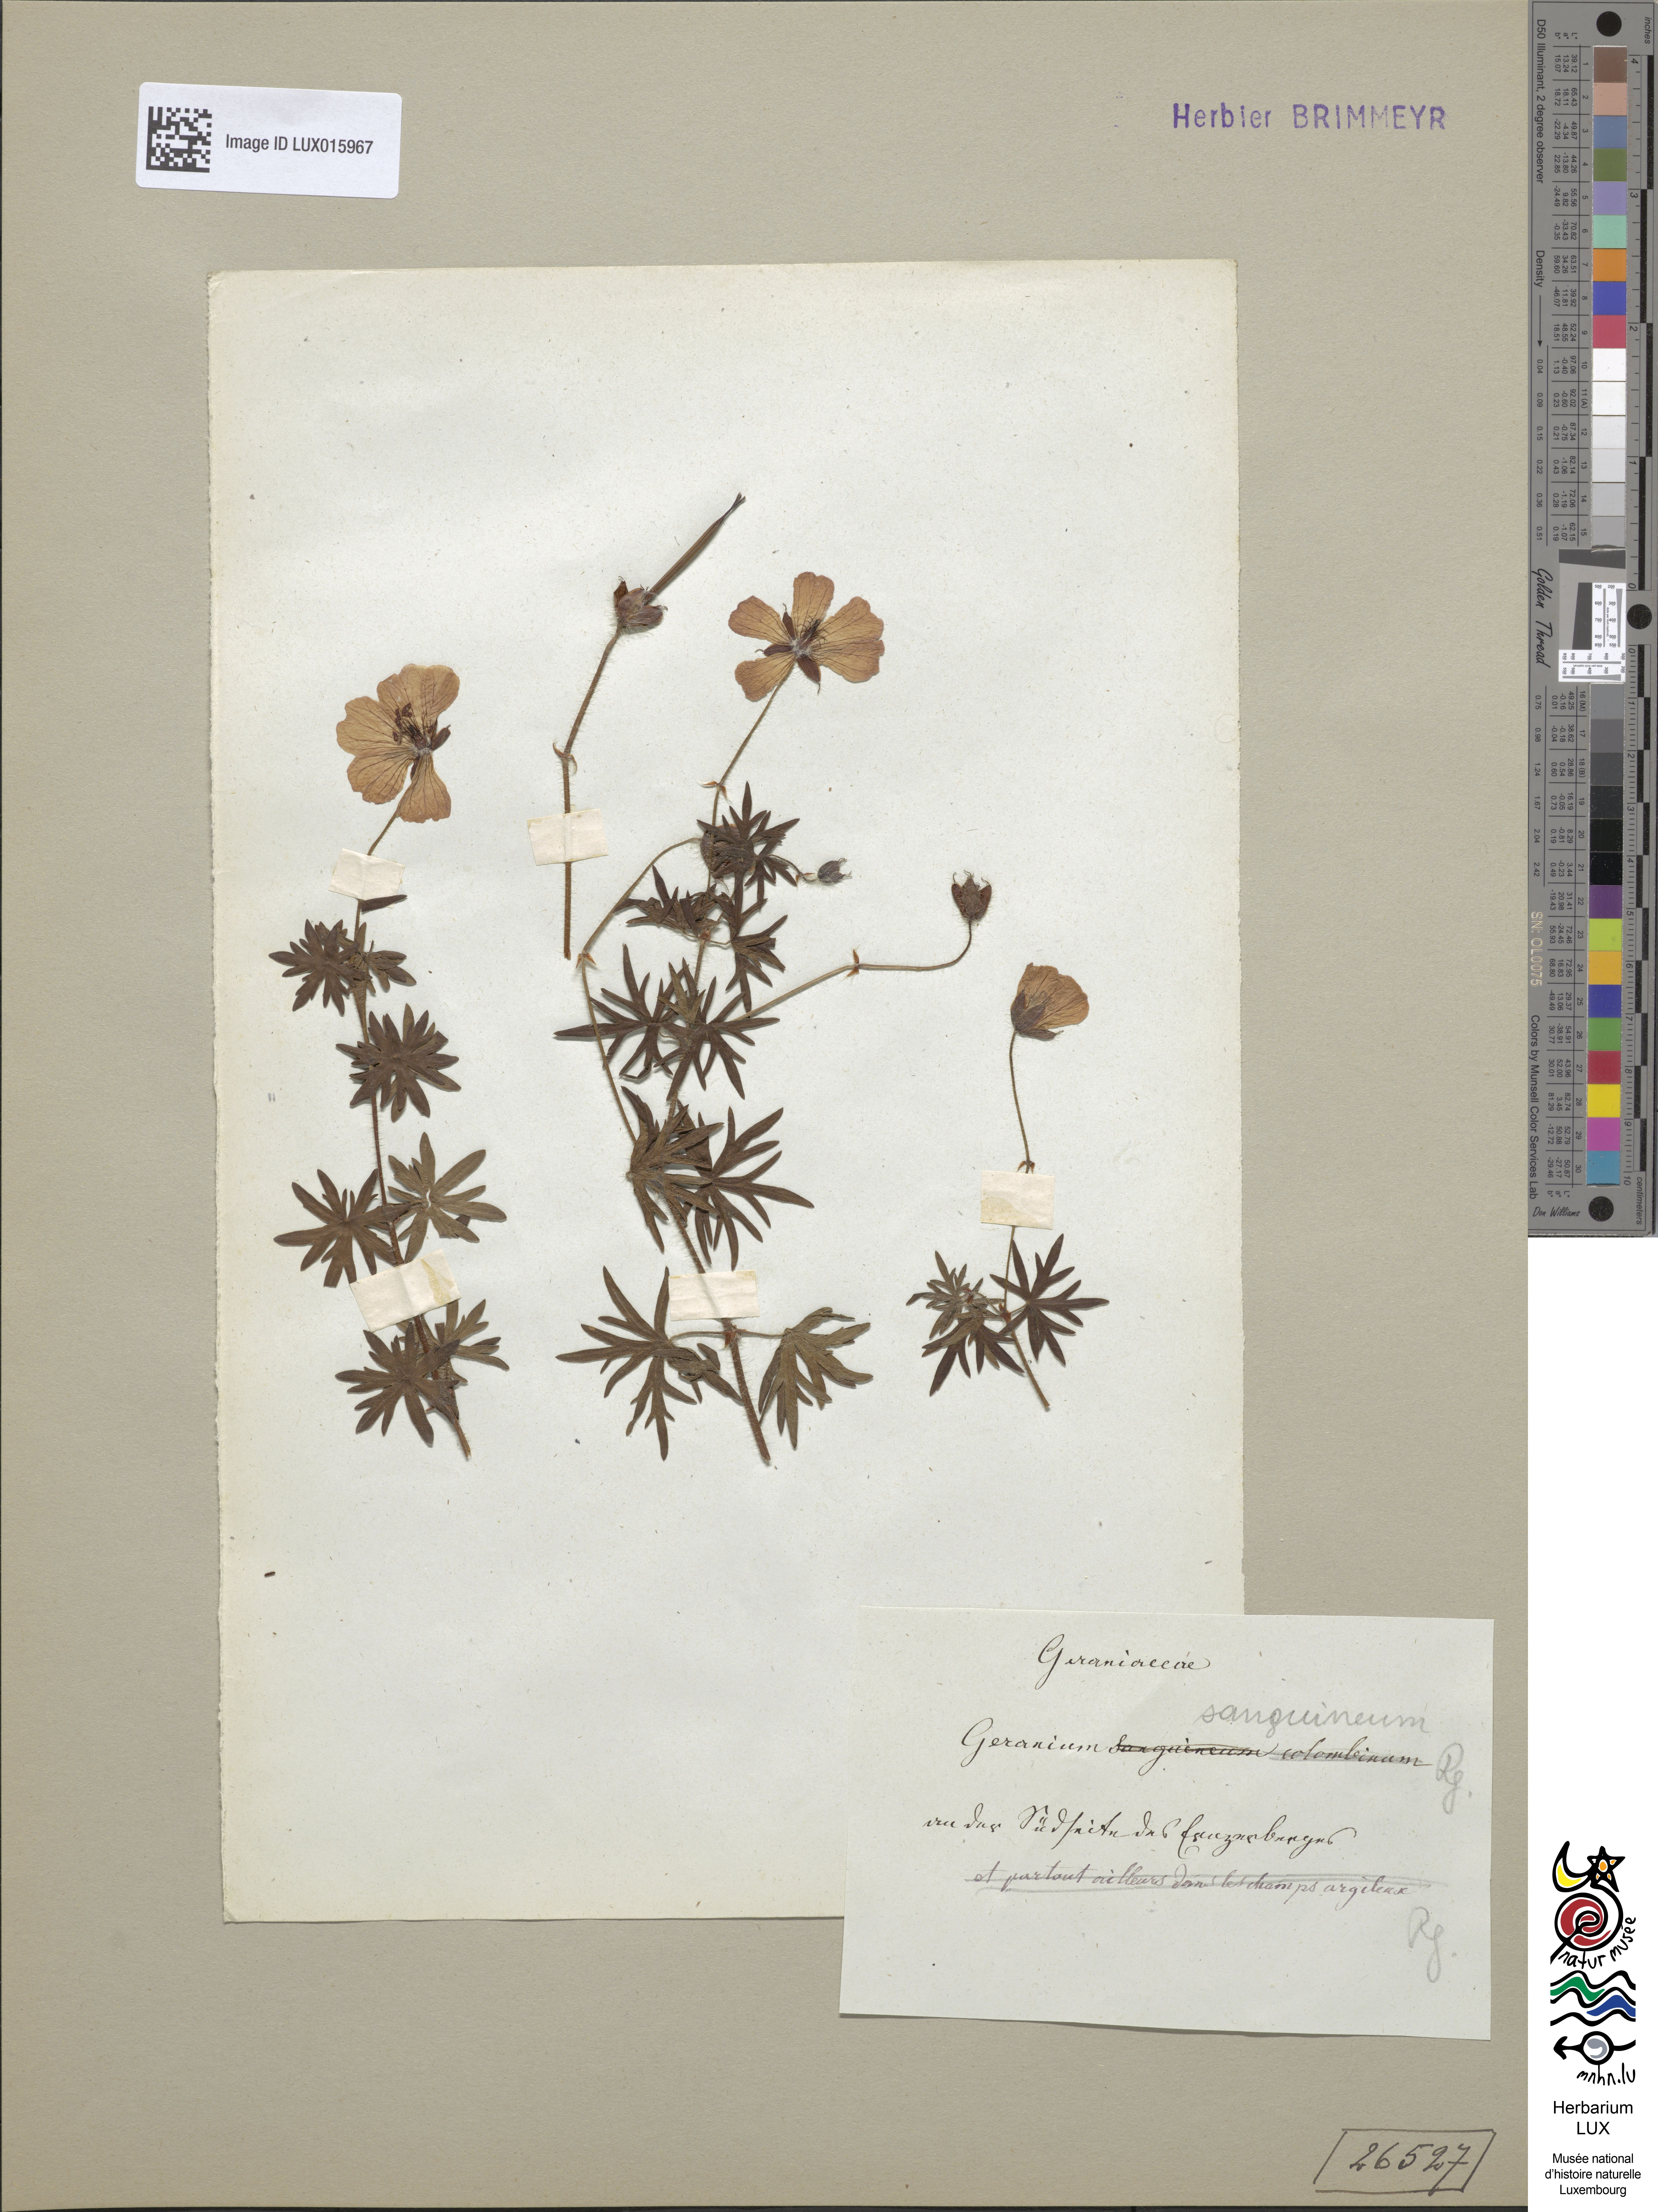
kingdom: Plantae
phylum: Tracheophyta
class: Magnoliopsida
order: Geraniales
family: Geraniaceae
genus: Geranium
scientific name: Geranium sanguineum
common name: Bloody crane's-bill
